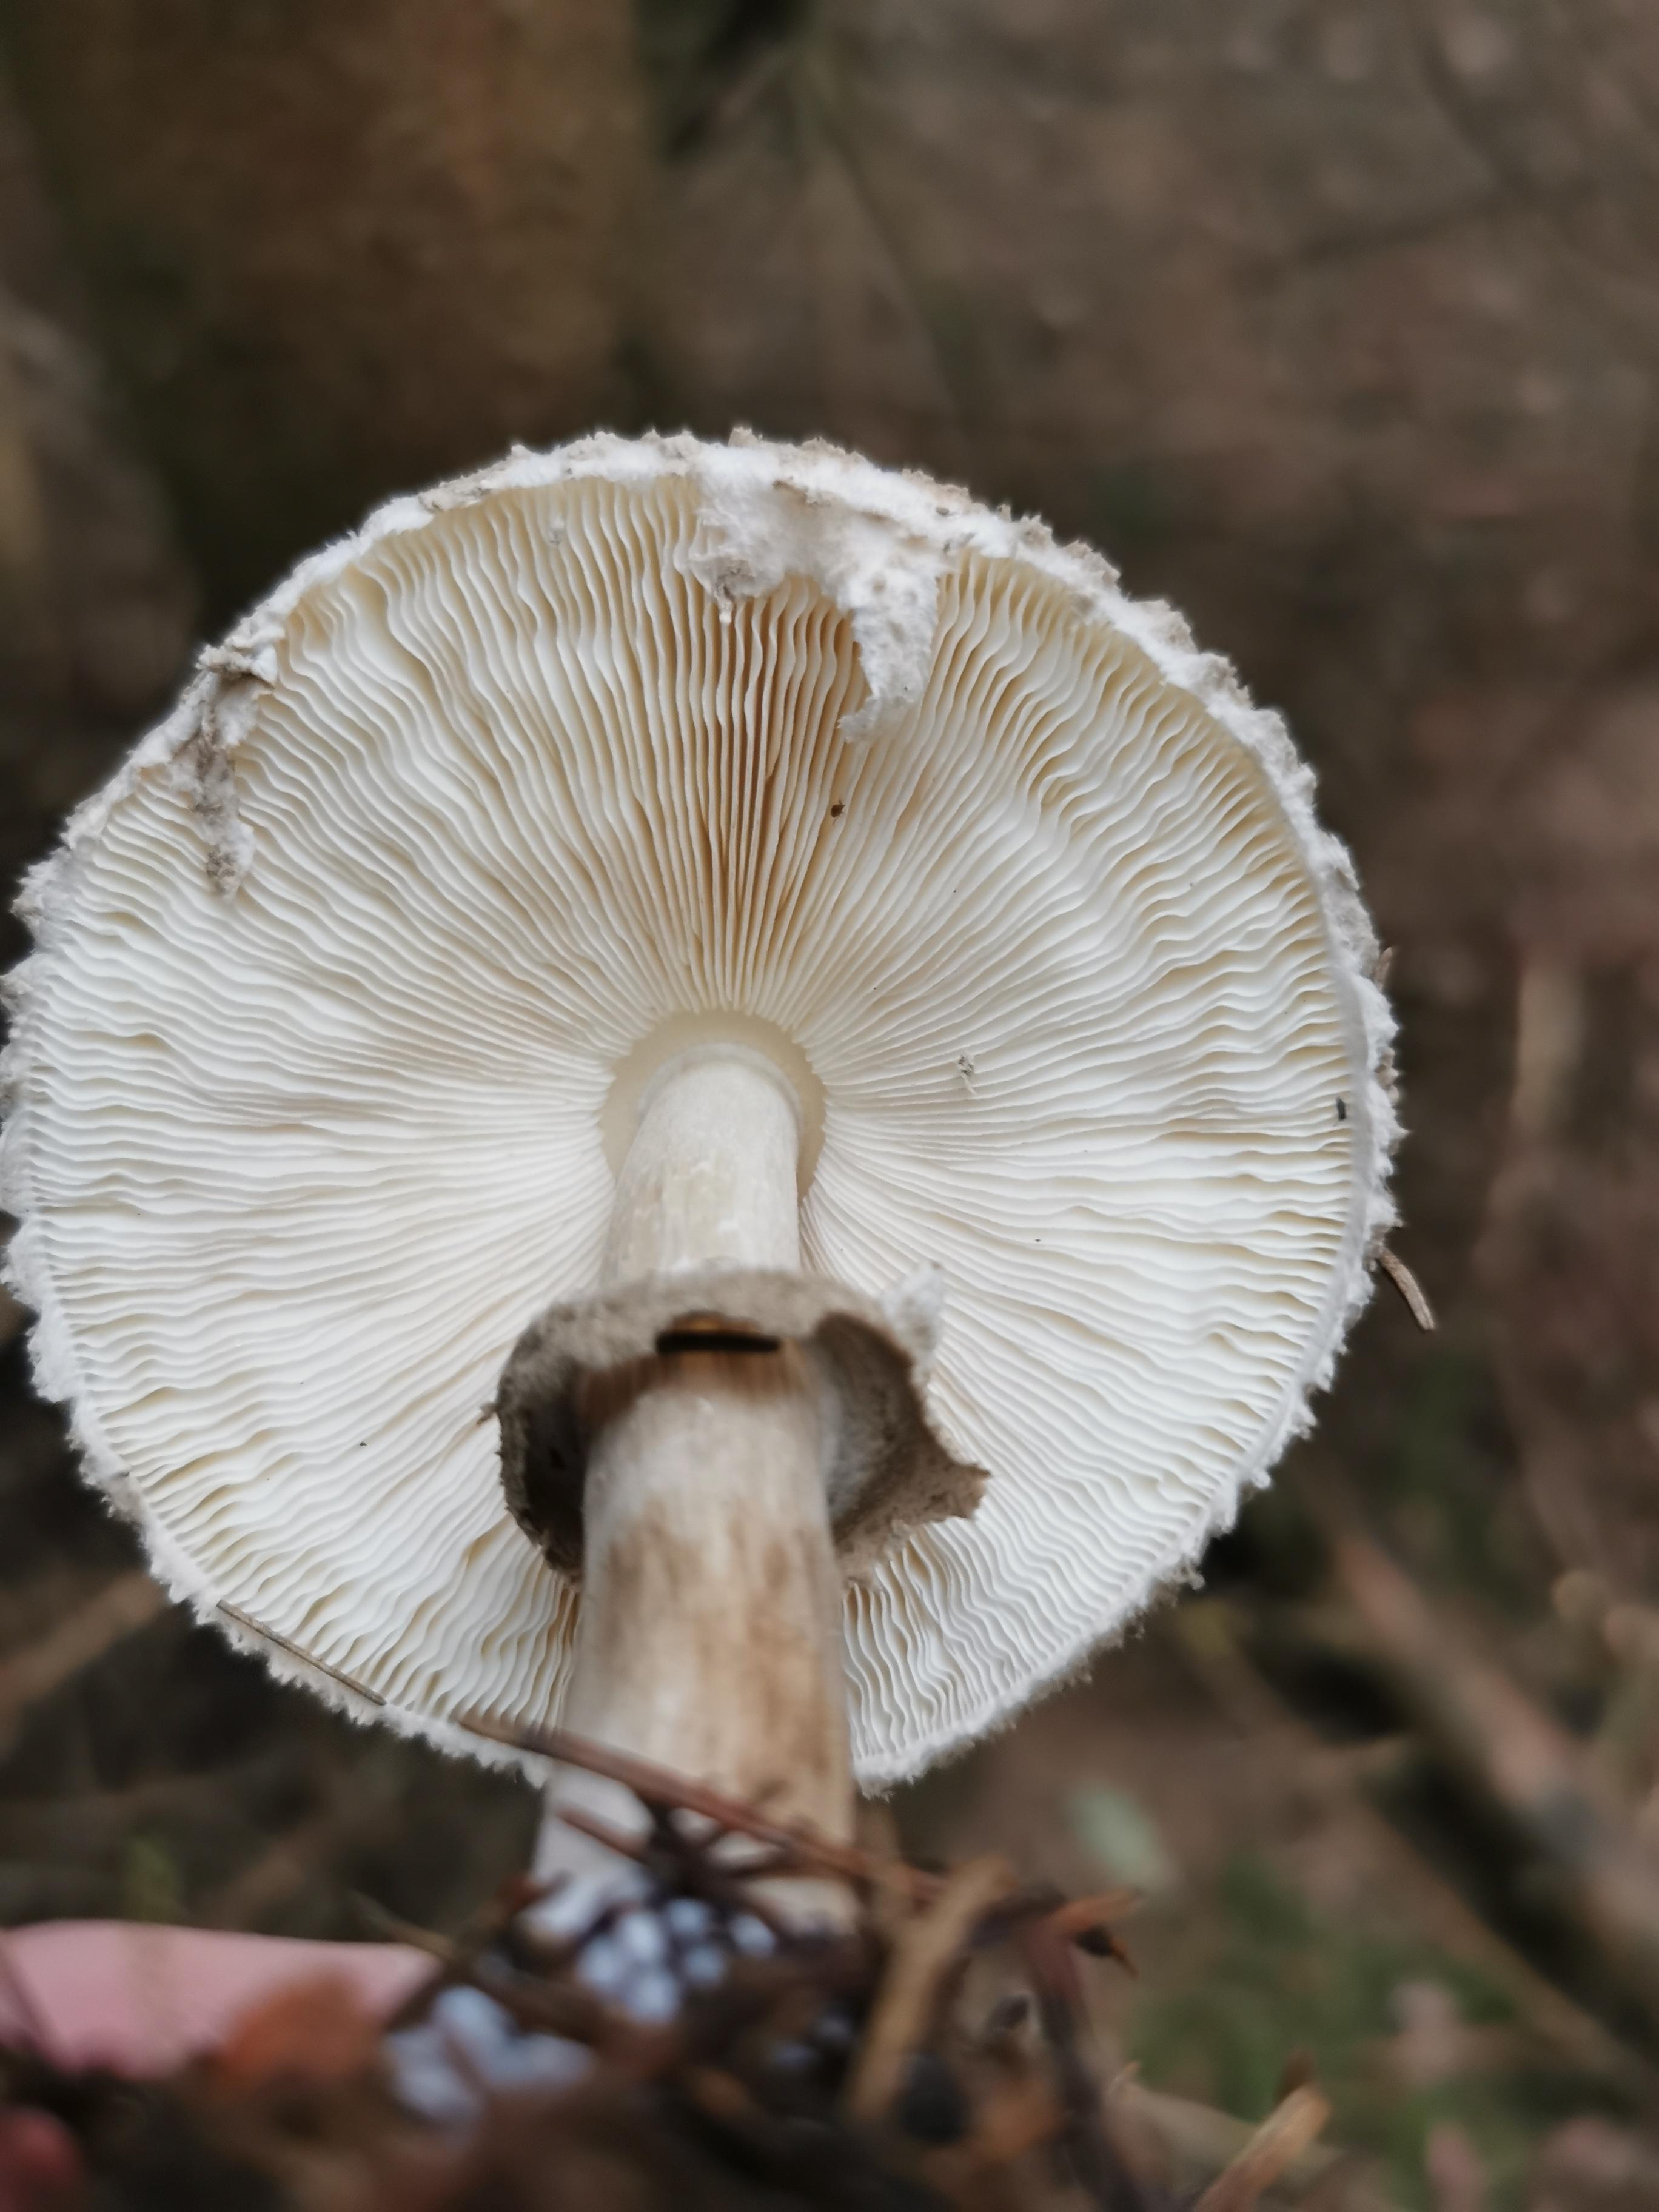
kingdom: Fungi
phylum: Basidiomycota
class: Agaricomycetes
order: Agaricales
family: Agaricaceae
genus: Chlorophyllum
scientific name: Chlorophyllum olivieri
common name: almindelig rabarberhat
